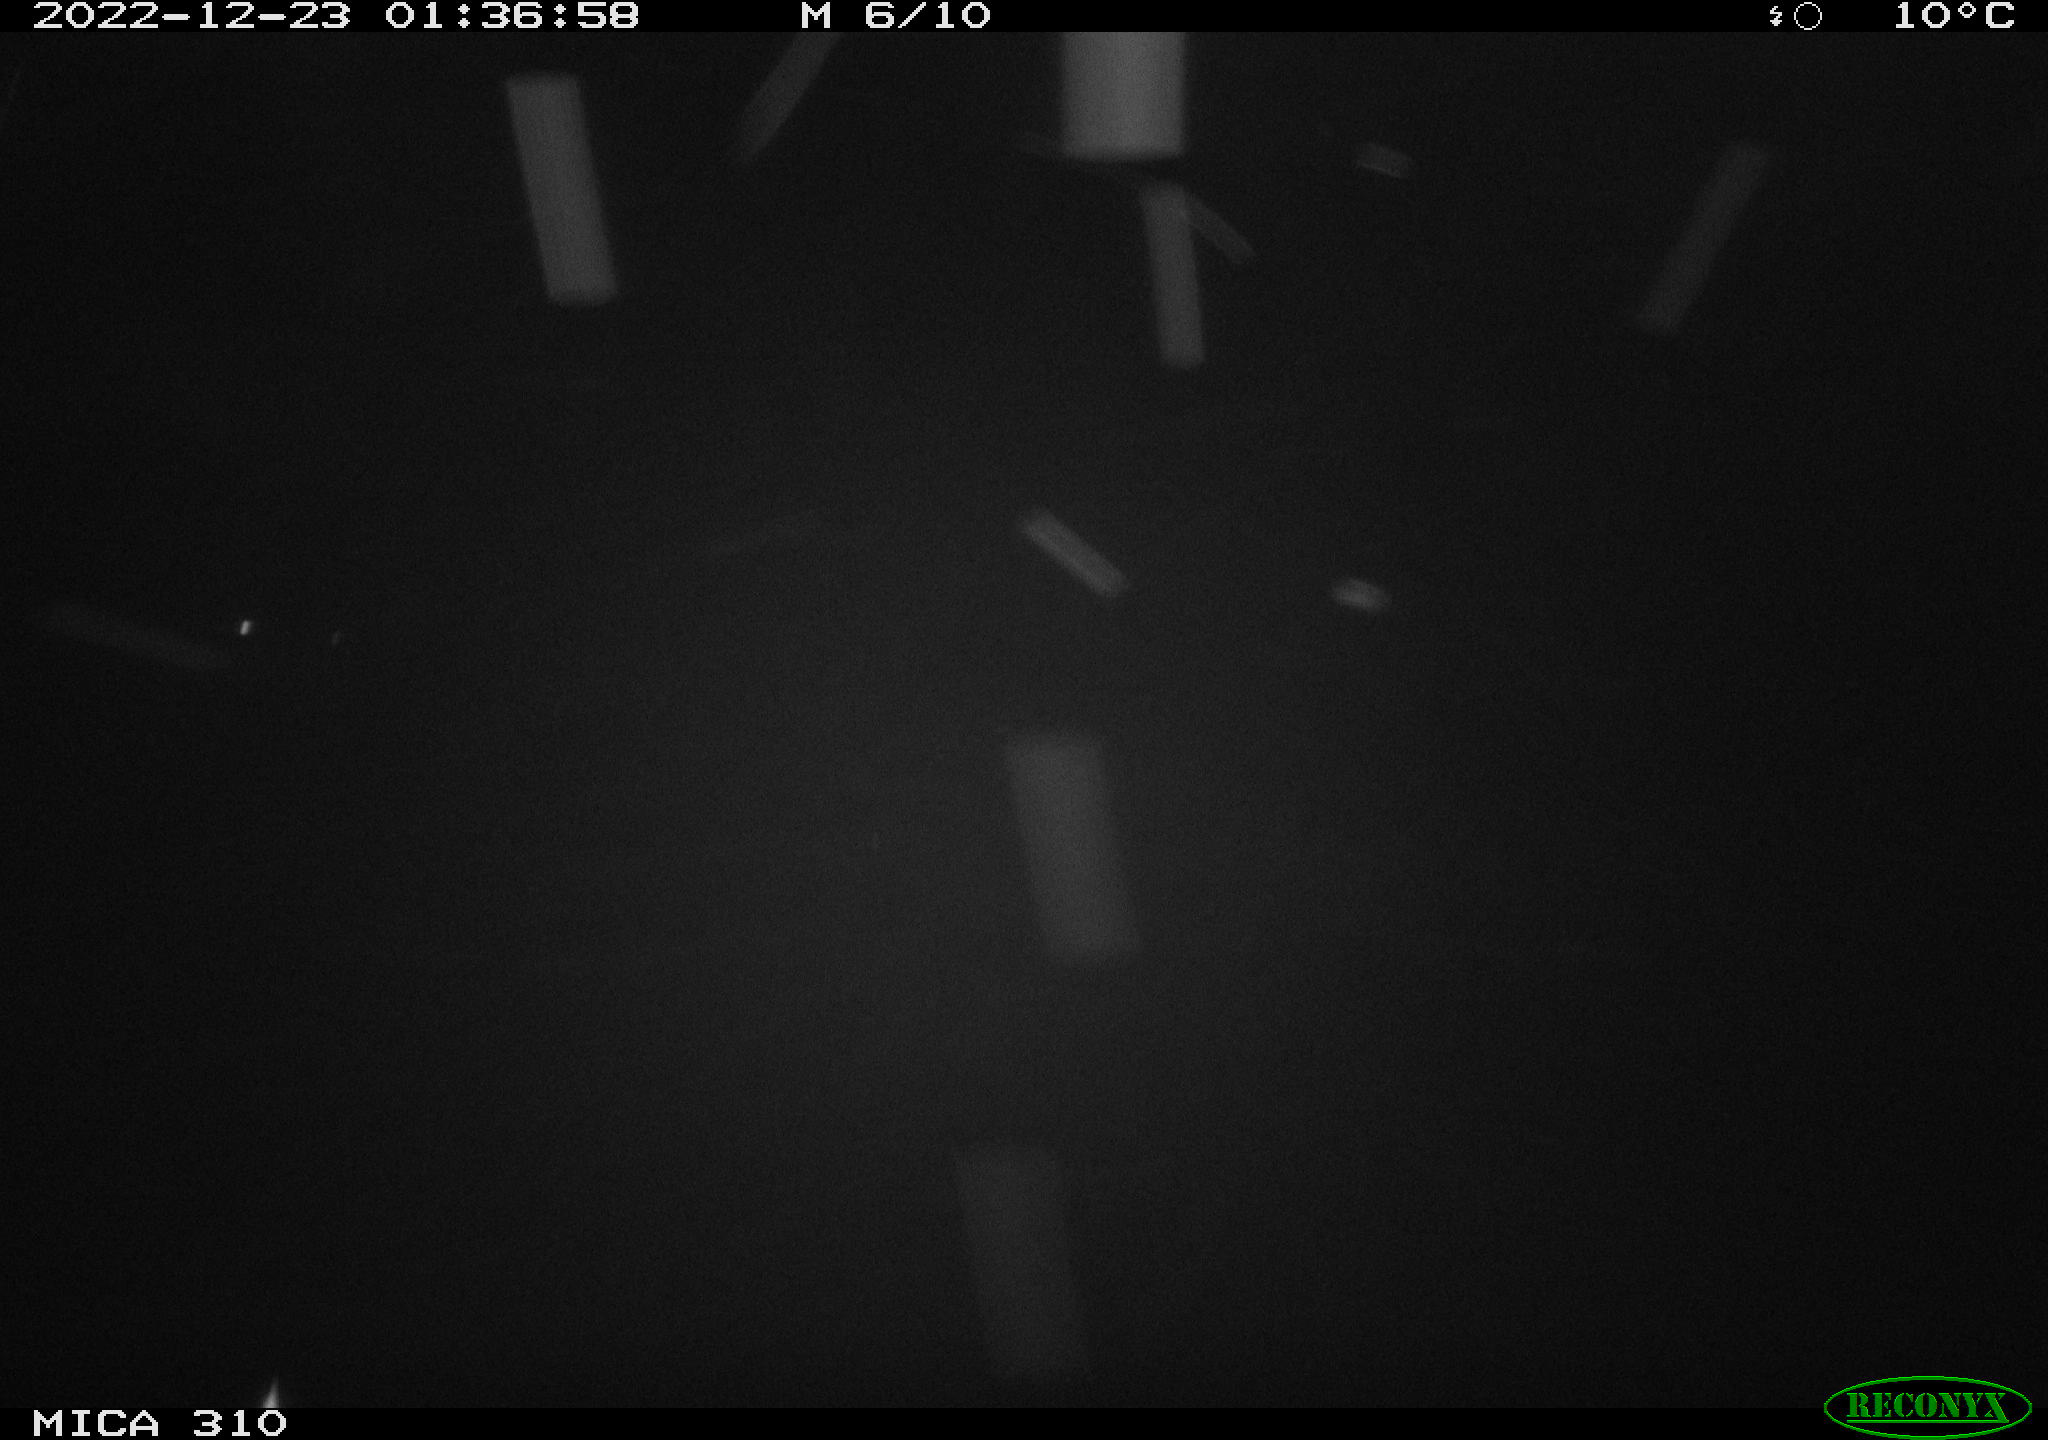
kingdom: Animalia
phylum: Chordata
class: Mammalia
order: Rodentia
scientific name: Rodentia
